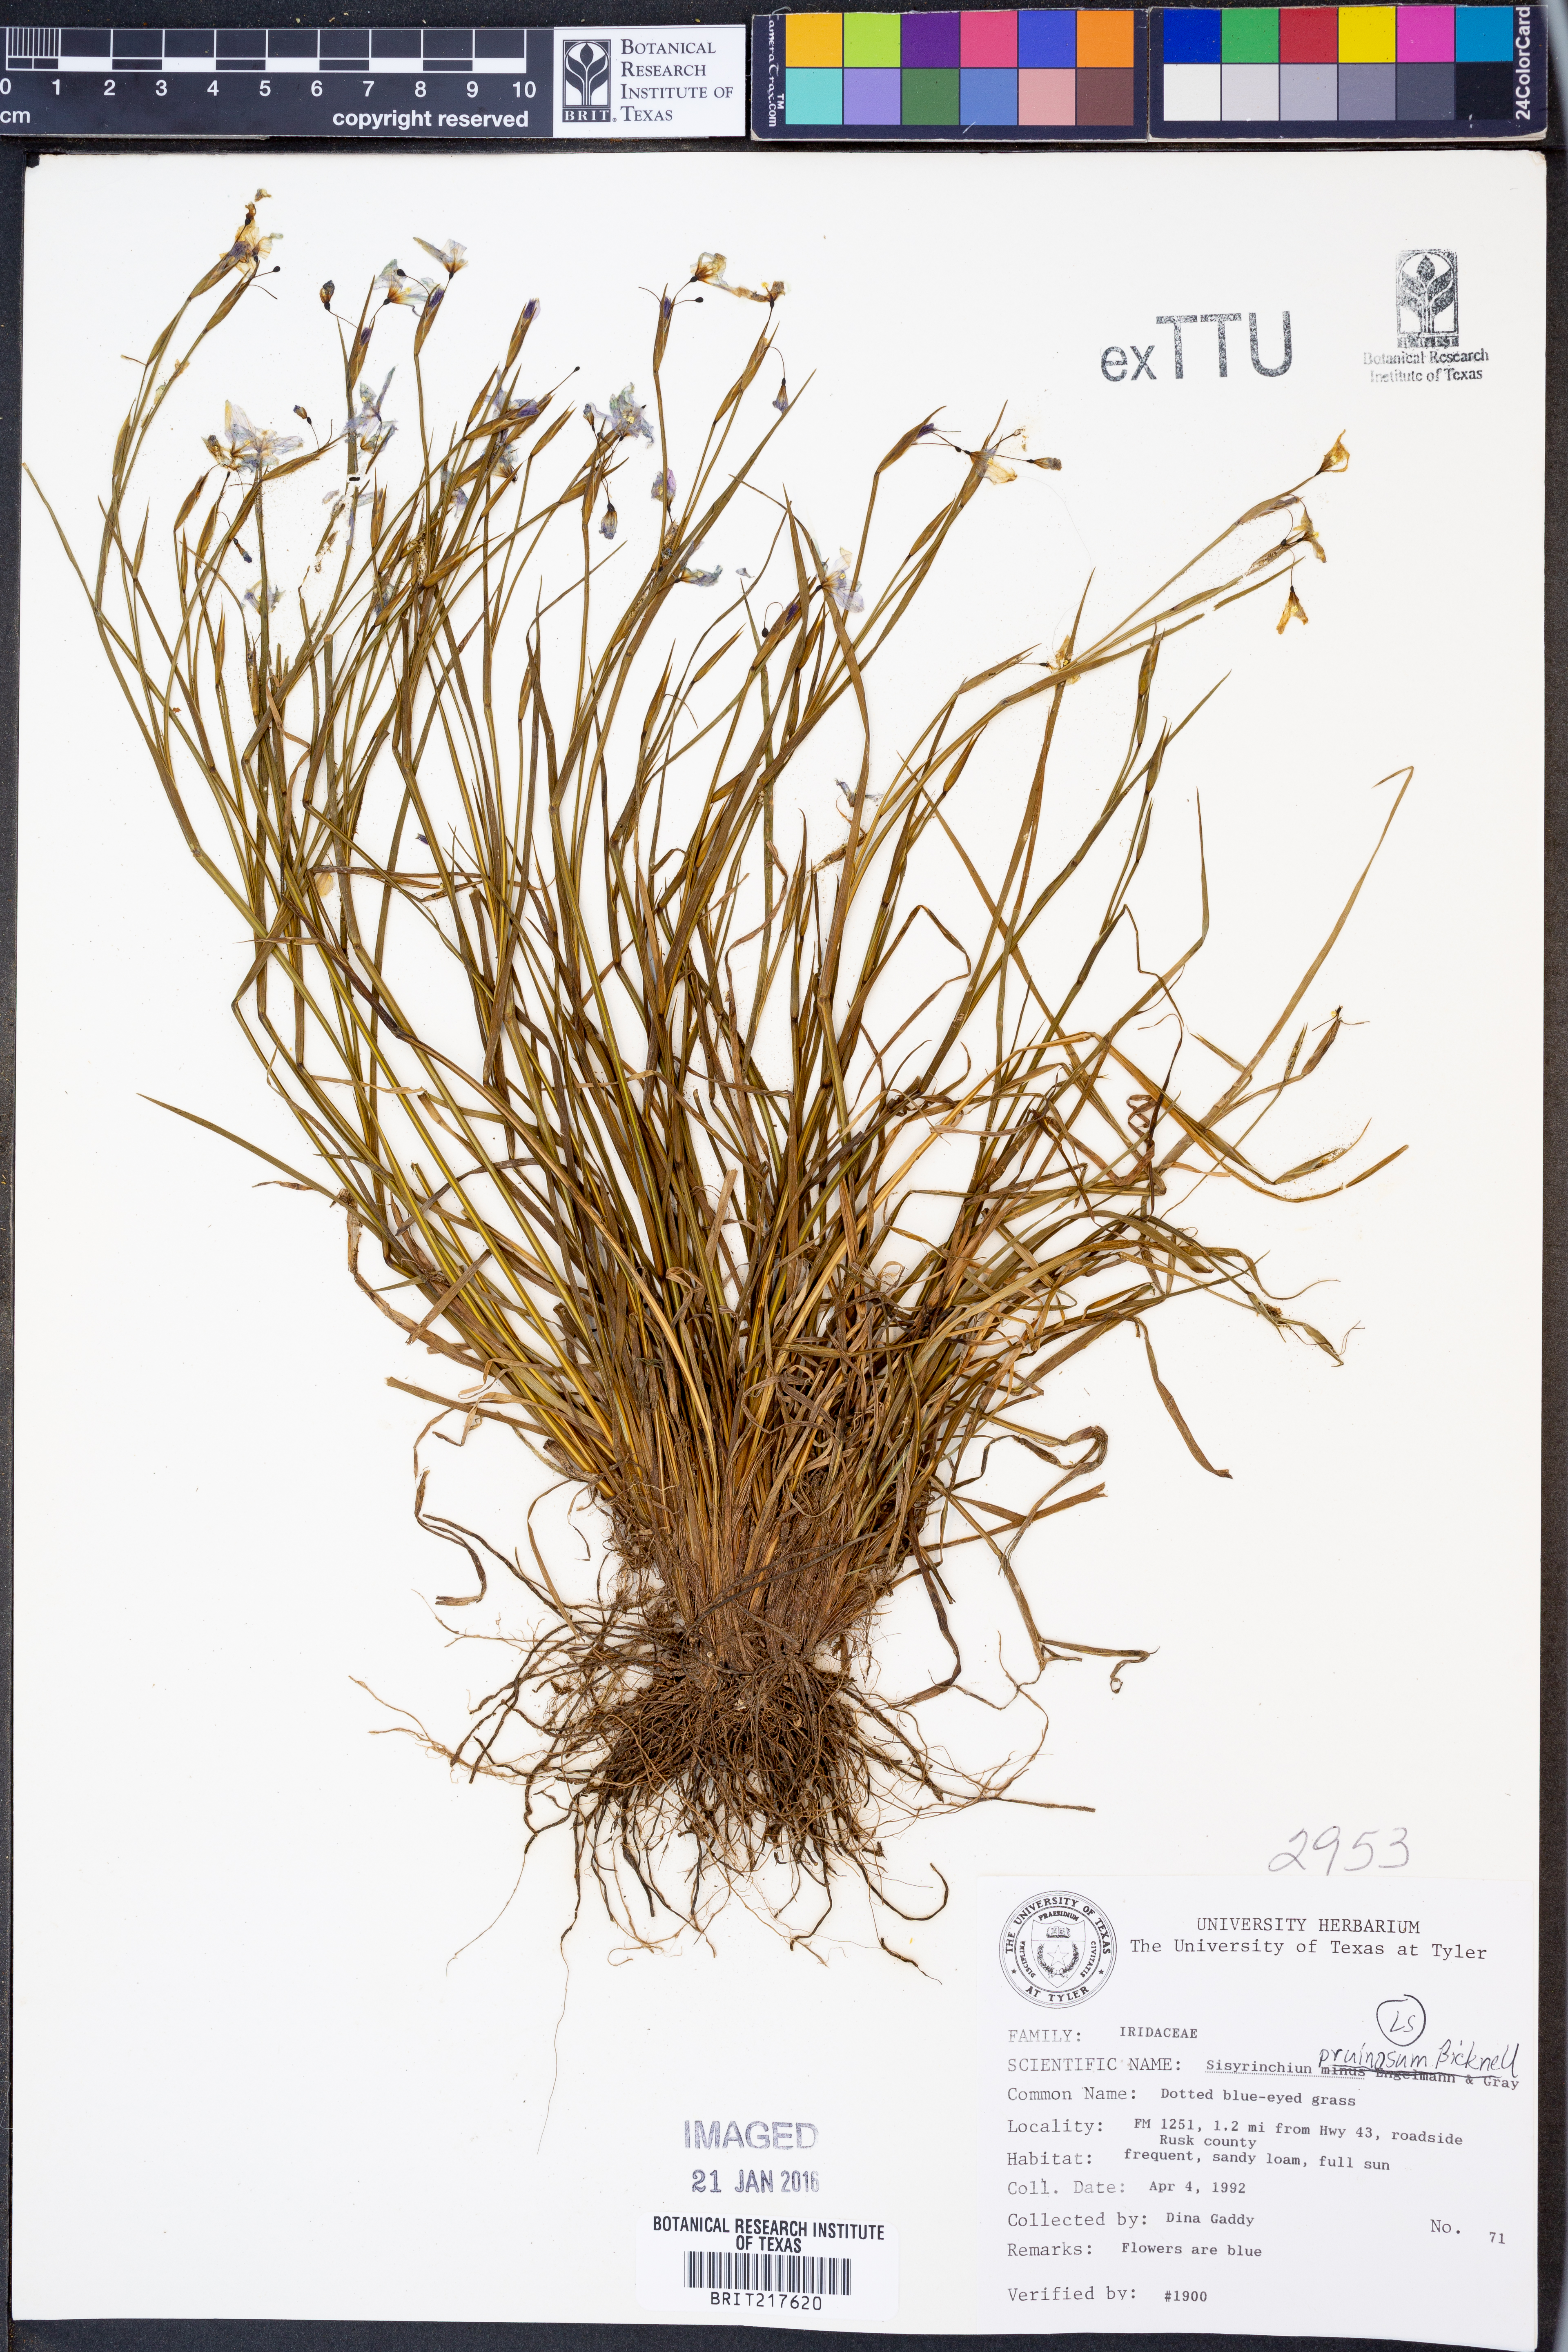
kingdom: Plantae
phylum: Tracheophyta
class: Liliopsida
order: Asparagales
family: Iridaceae
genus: Sisyrinchium
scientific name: Sisyrinchium pruinosum
